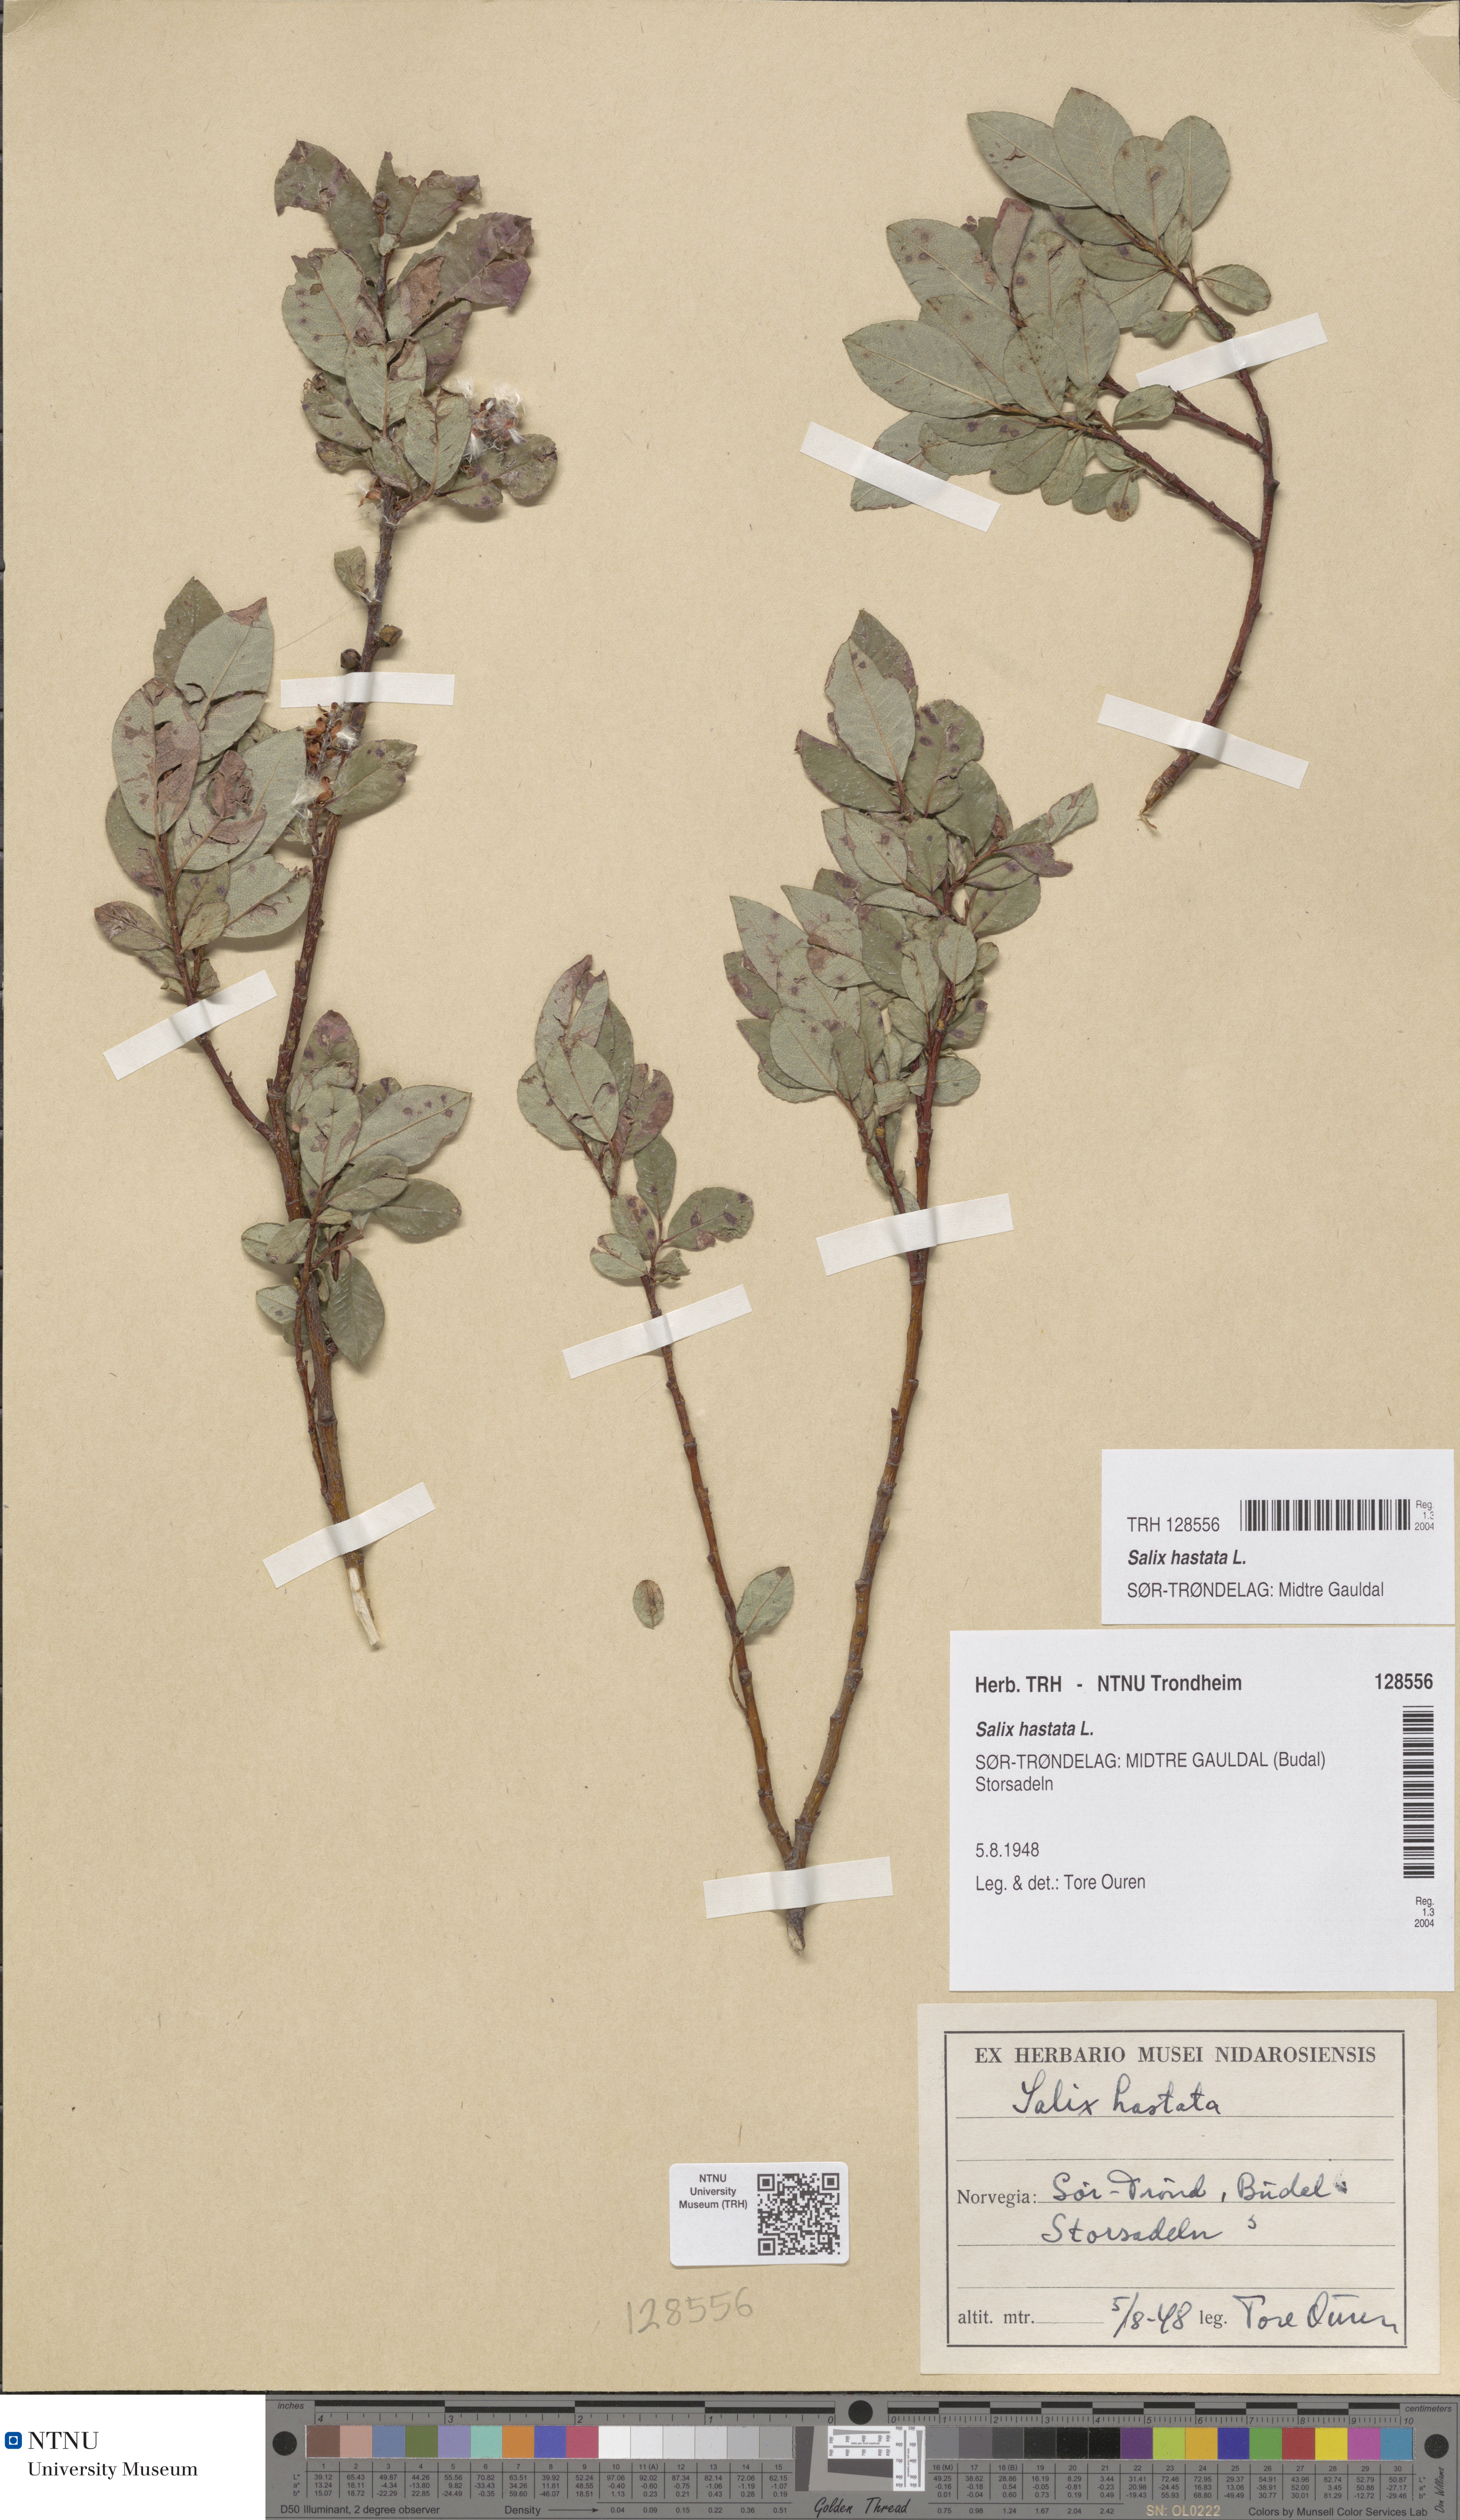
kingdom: Plantae
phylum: Tracheophyta
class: Magnoliopsida
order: Malpighiales
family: Salicaceae
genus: Salix
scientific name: Salix hastata
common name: Halberd willow
